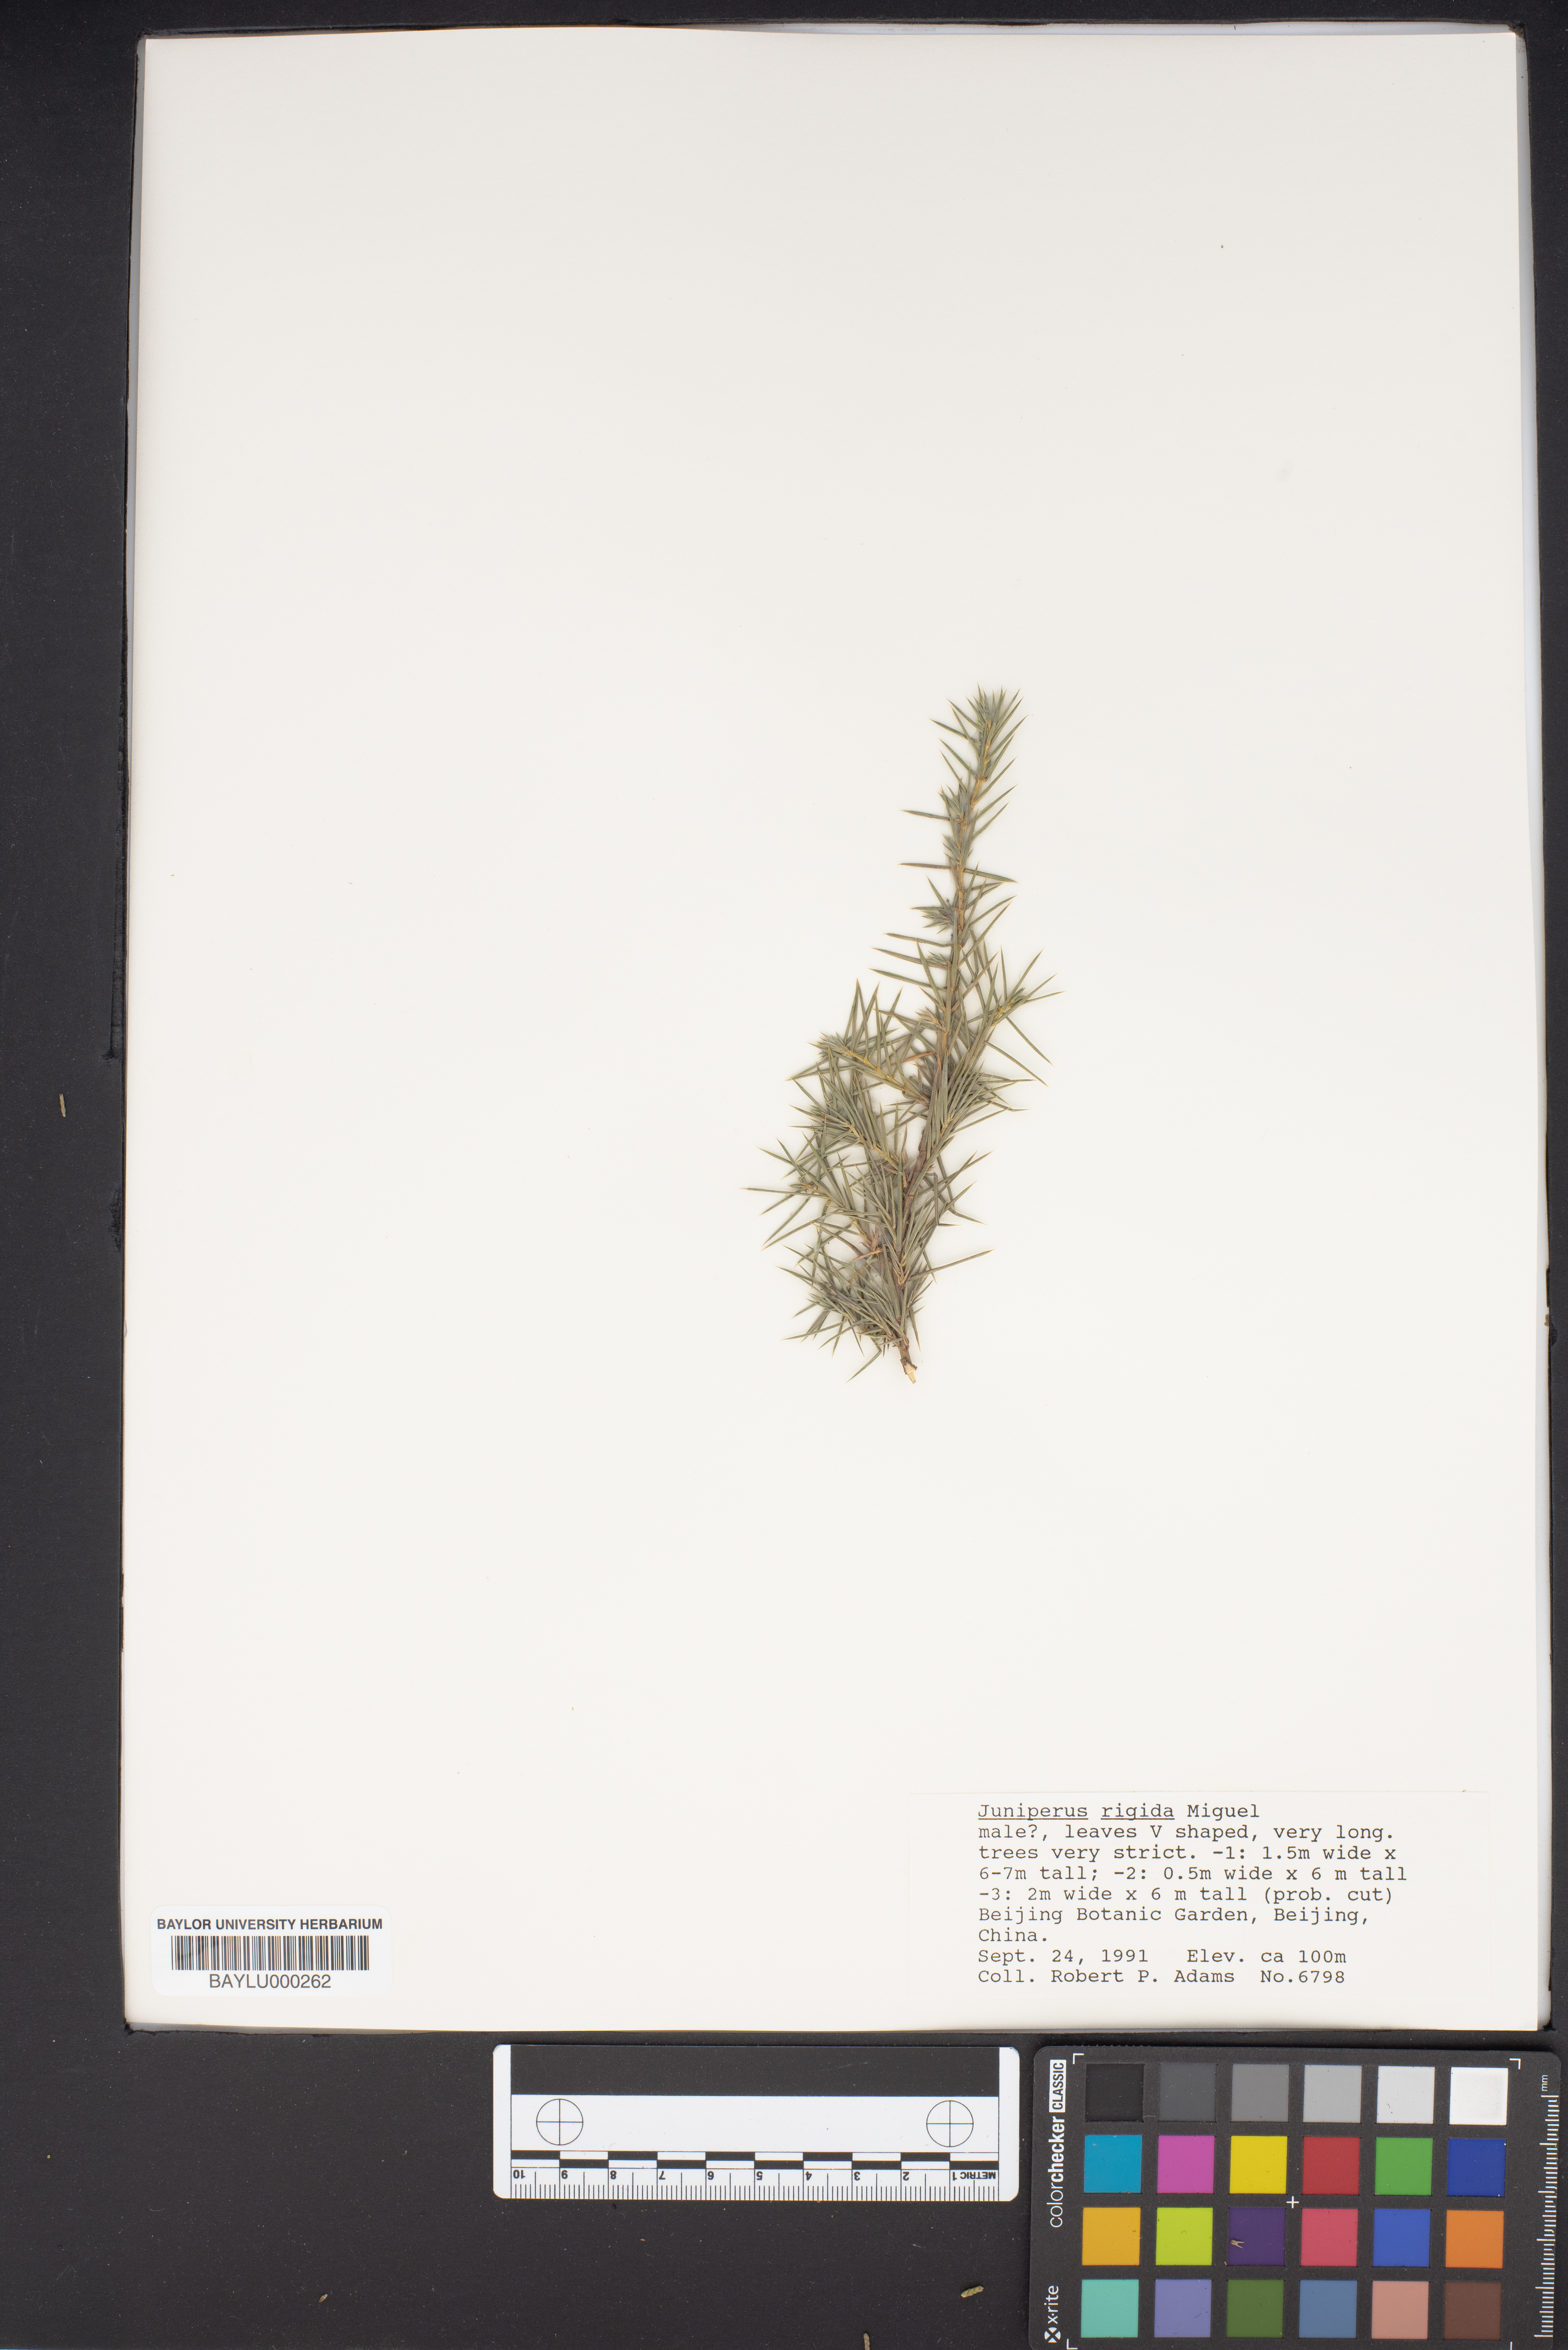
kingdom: Plantae
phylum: Tracheophyta
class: Pinopsida
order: Pinales
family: Cupressaceae
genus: Juniperus
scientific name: Juniperus rigida
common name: Needle juniper
